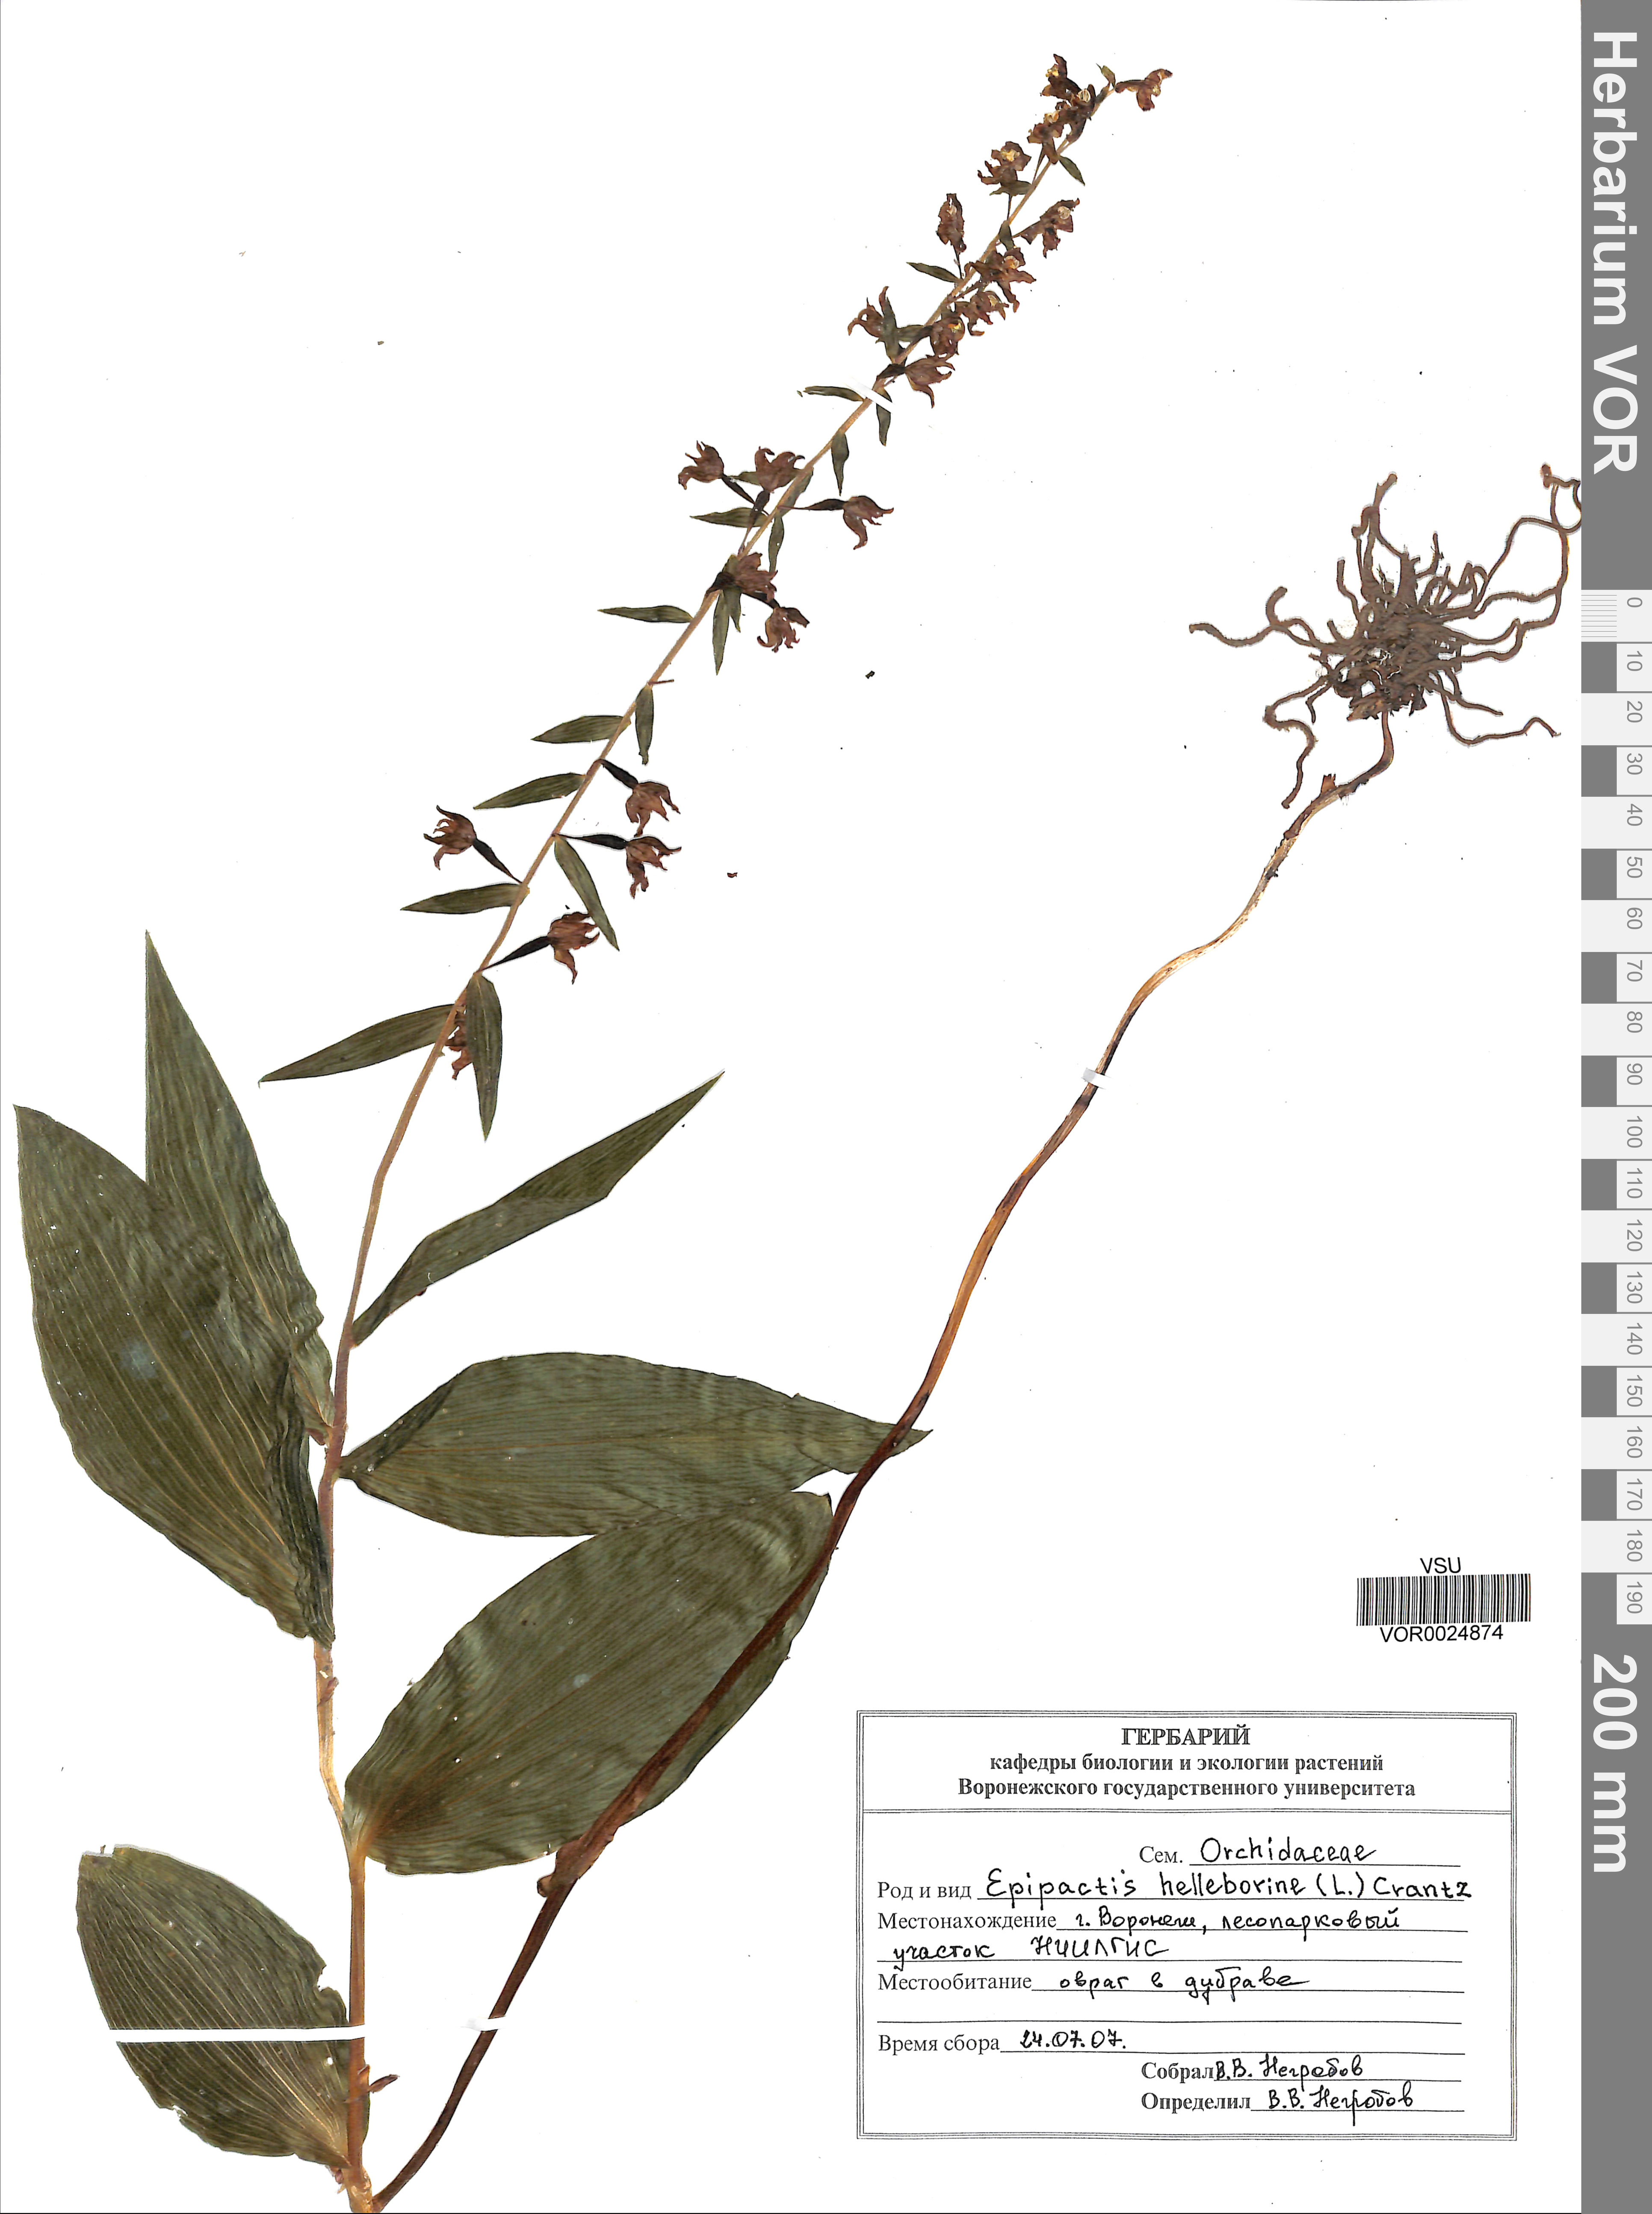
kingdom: Plantae
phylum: Tracheophyta
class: Liliopsida
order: Asparagales
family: Orchidaceae
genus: Epipactis
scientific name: Epipactis helleborine
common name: Broad-leaved helleborine
